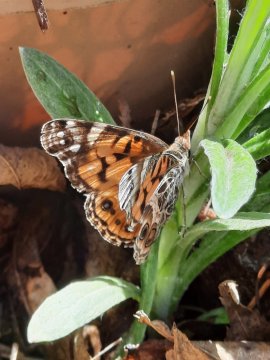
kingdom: Animalia
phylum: Arthropoda
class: Insecta
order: Lepidoptera
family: Nymphalidae
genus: Vanessa
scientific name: Vanessa virginiensis
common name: American Lady
